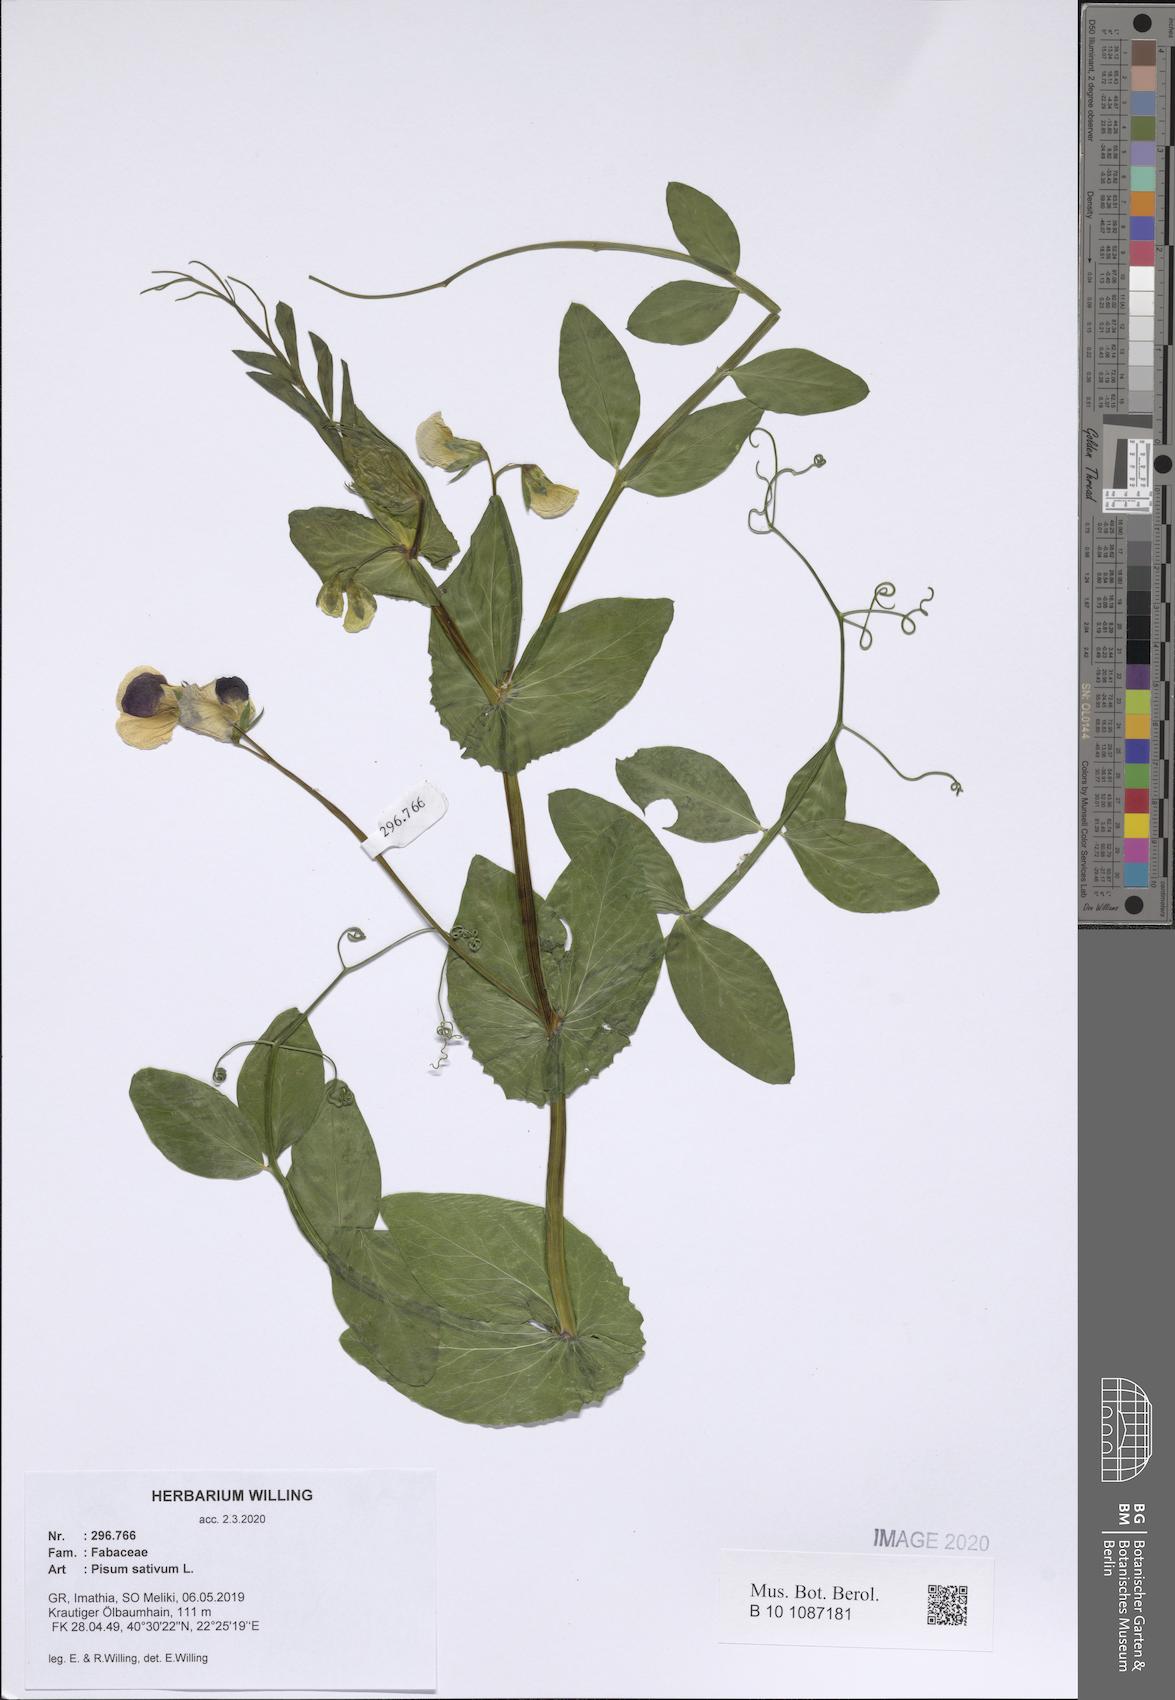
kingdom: Plantae
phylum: Tracheophyta
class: Magnoliopsida
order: Fabales
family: Fabaceae
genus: Lathyrus
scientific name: Lathyrus oleraceus
